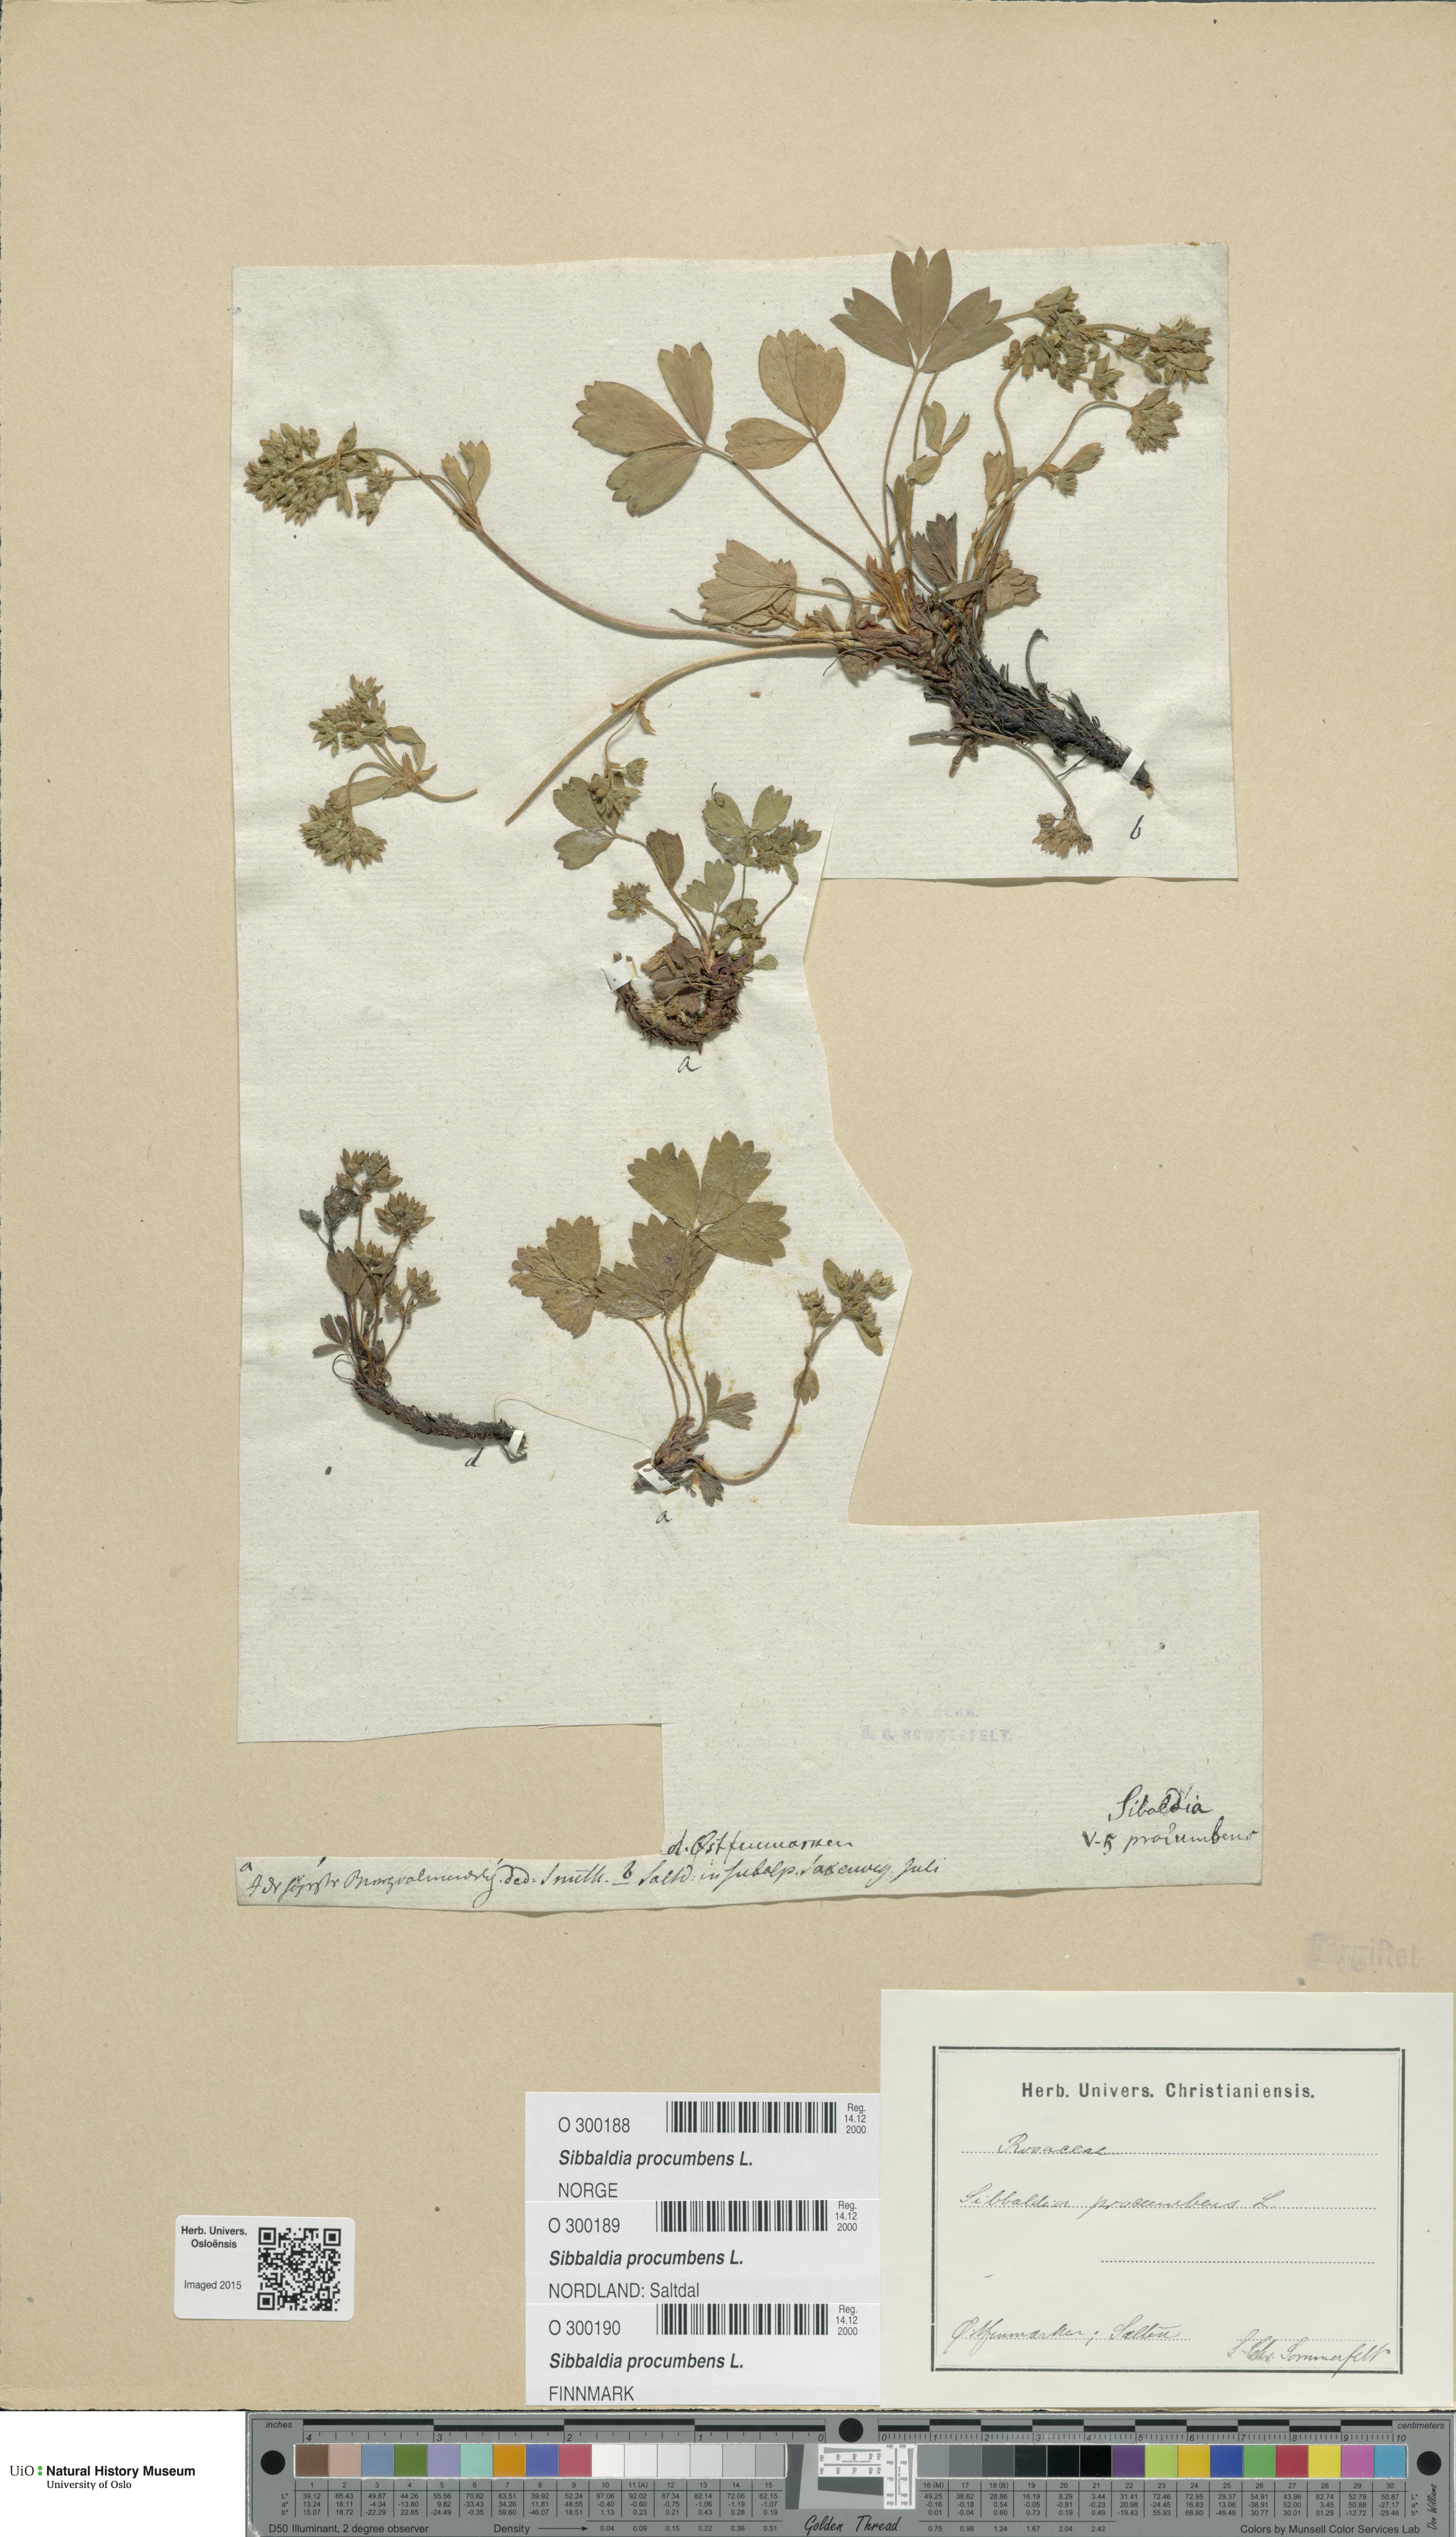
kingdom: Plantae
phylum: Tracheophyta
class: Magnoliopsida
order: Rosales
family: Rosaceae
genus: Sibbaldia
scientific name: Sibbaldia procumbens
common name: Creeping sibbaldia
